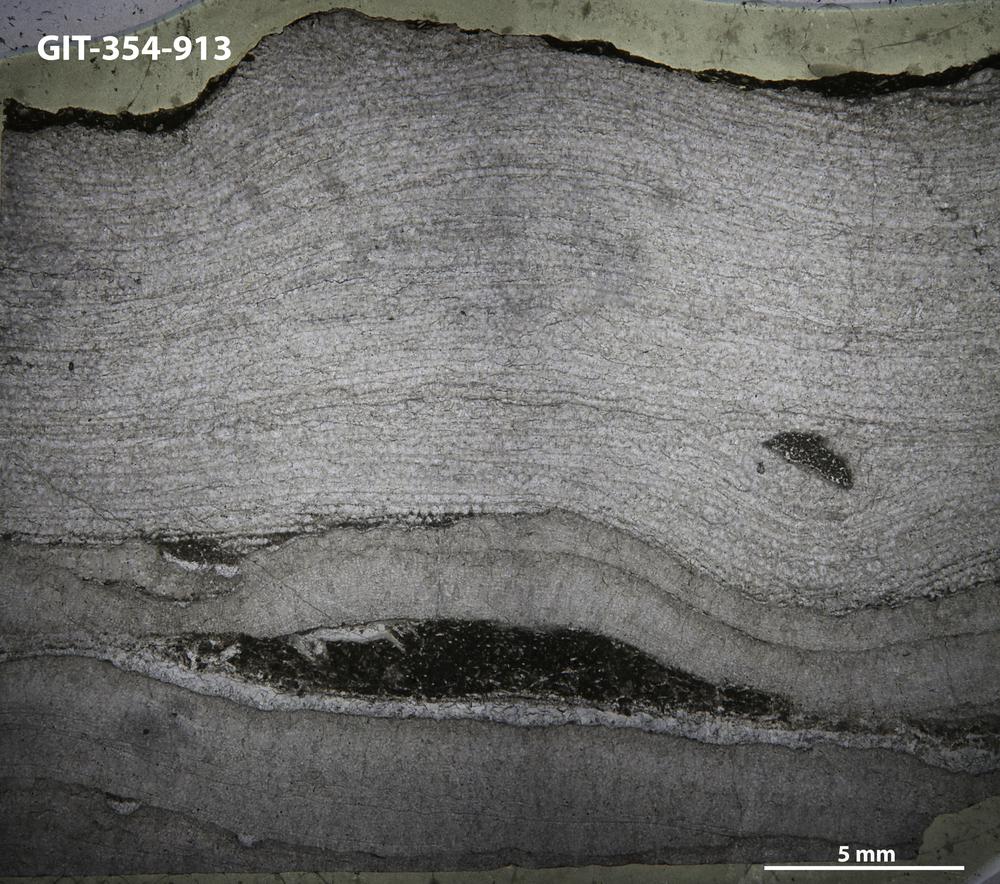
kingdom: Animalia
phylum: Porifera
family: Densastromatidae
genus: Densastroma
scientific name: Densastroma
